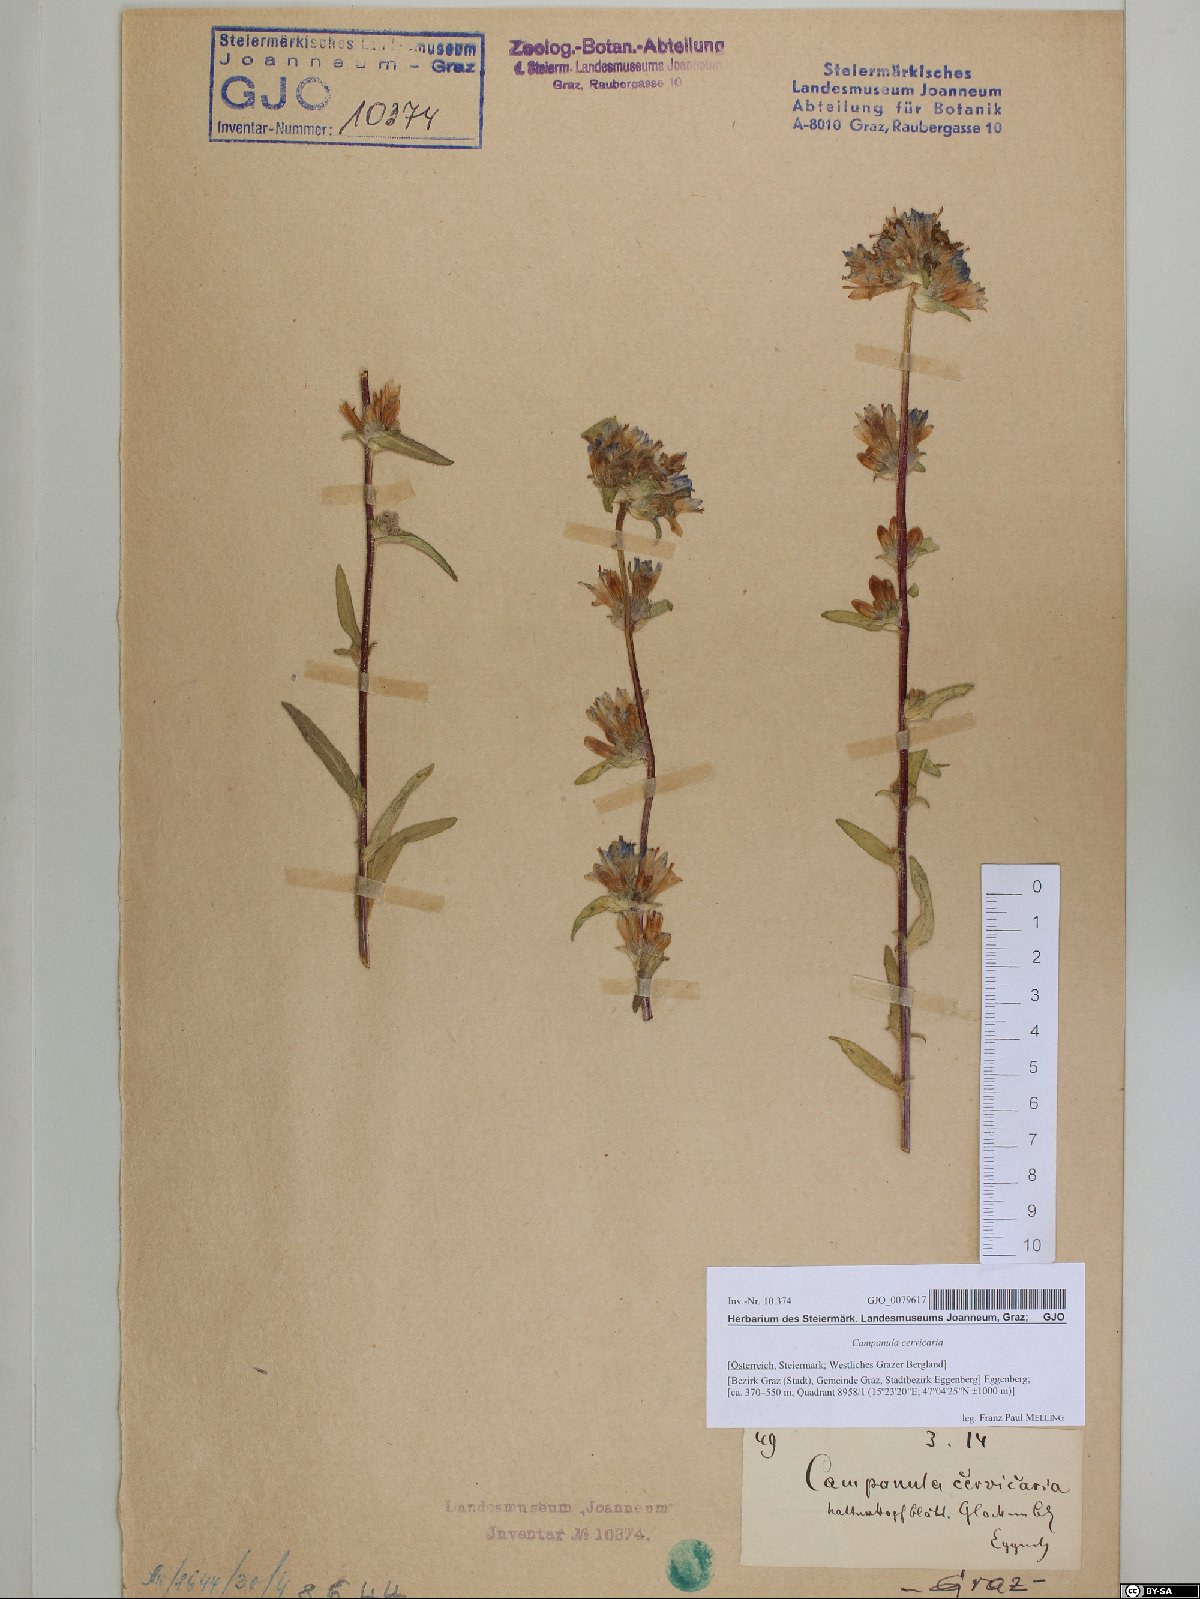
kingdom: Plantae
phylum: Tracheophyta
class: Magnoliopsida
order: Asterales
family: Campanulaceae
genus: Campanula
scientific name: Campanula cervicaria
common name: Bristly bellflower
